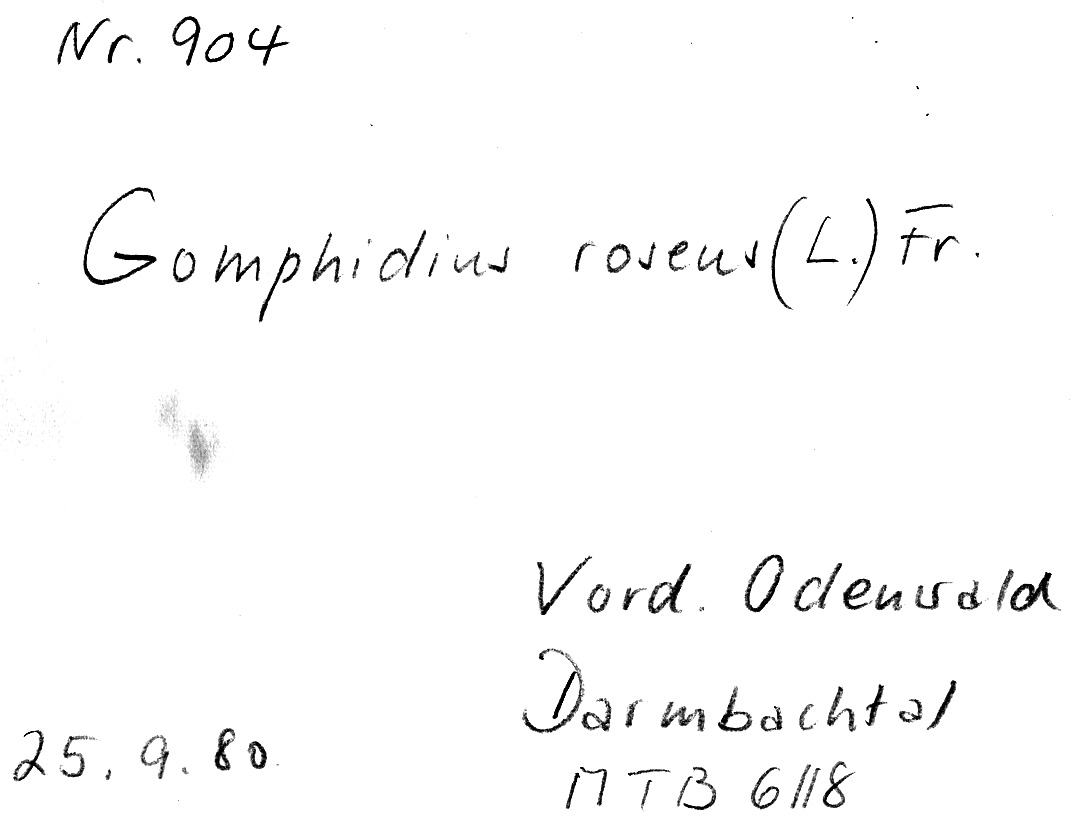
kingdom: Fungi
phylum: Basidiomycota
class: Agaricomycetes
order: Boletales
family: Gomphidiaceae
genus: Gomphidius
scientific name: Gomphidius roseus
